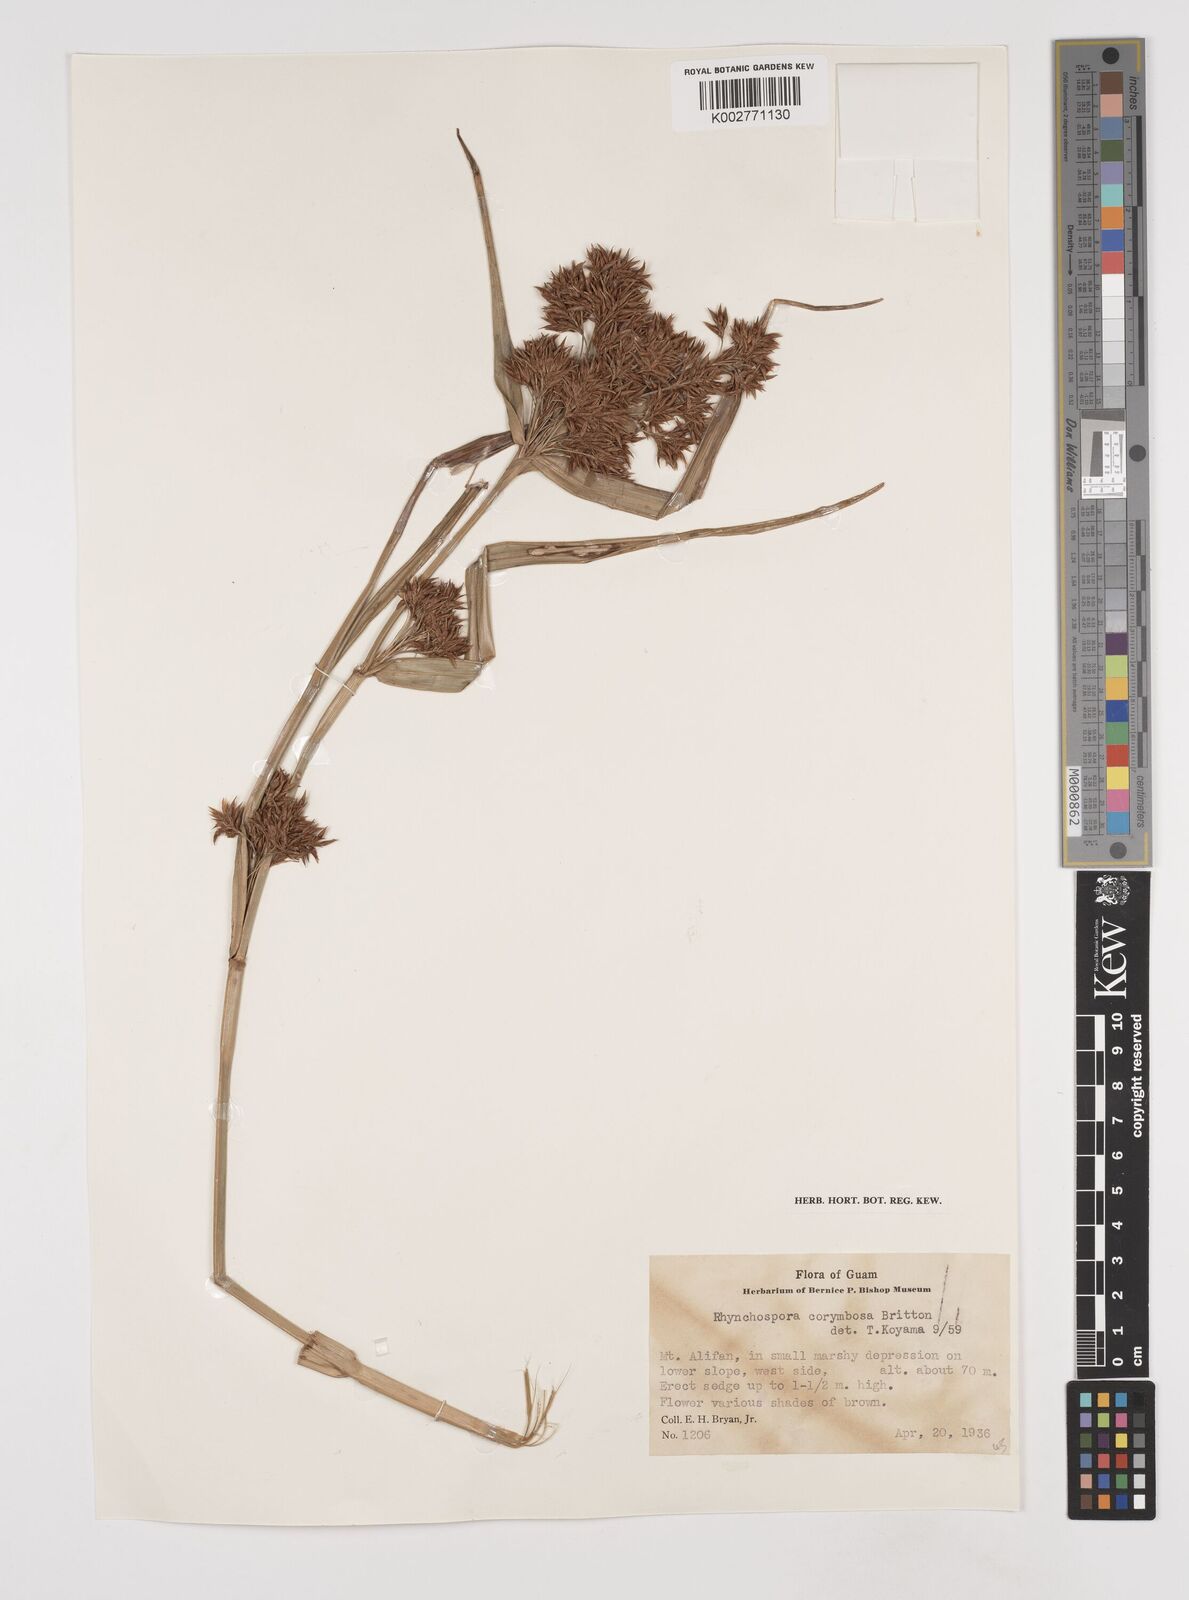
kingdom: Plantae
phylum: Tracheophyta
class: Liliopsida
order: Poales
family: Cyperaceae
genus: Rhynchospora
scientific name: Rhynchospora corymbosa
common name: Golden beak sedge
